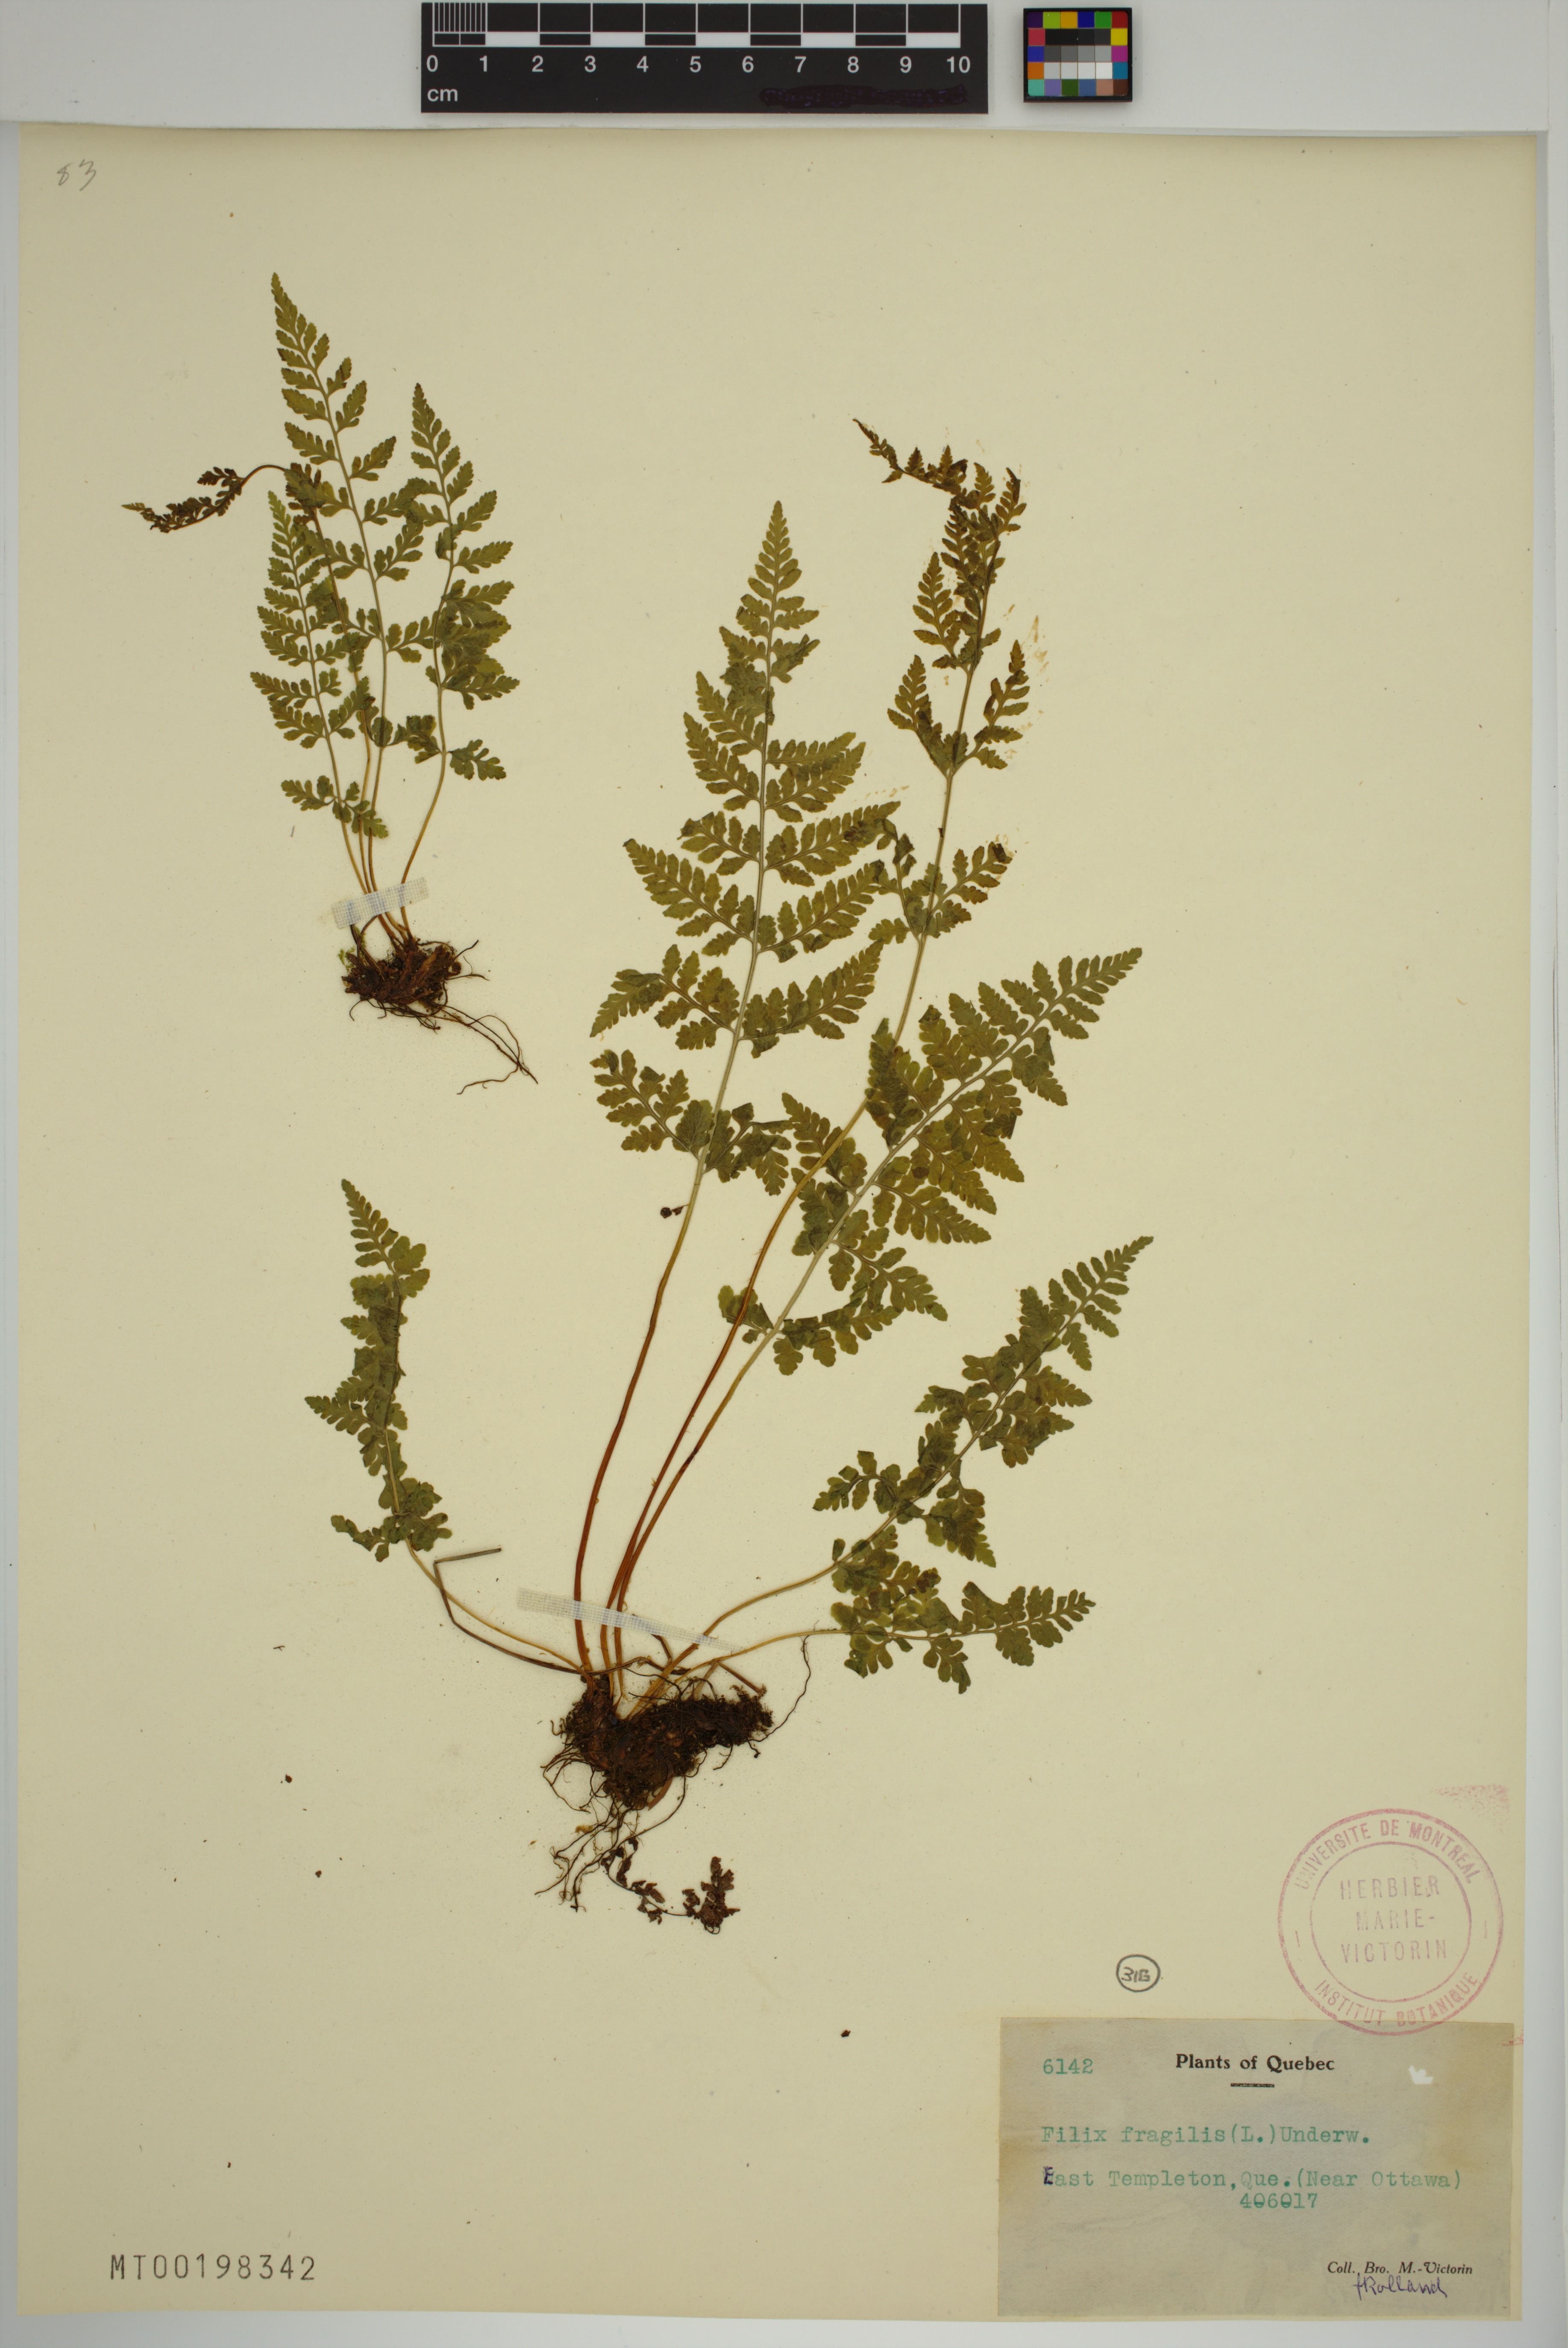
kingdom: Plantae
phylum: Tracheophyta
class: Polypodiopsida
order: Polypodiales
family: Cystopteridaceae
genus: Cystopteris
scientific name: Cystopteris fragilis
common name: Brittle bladder fern
